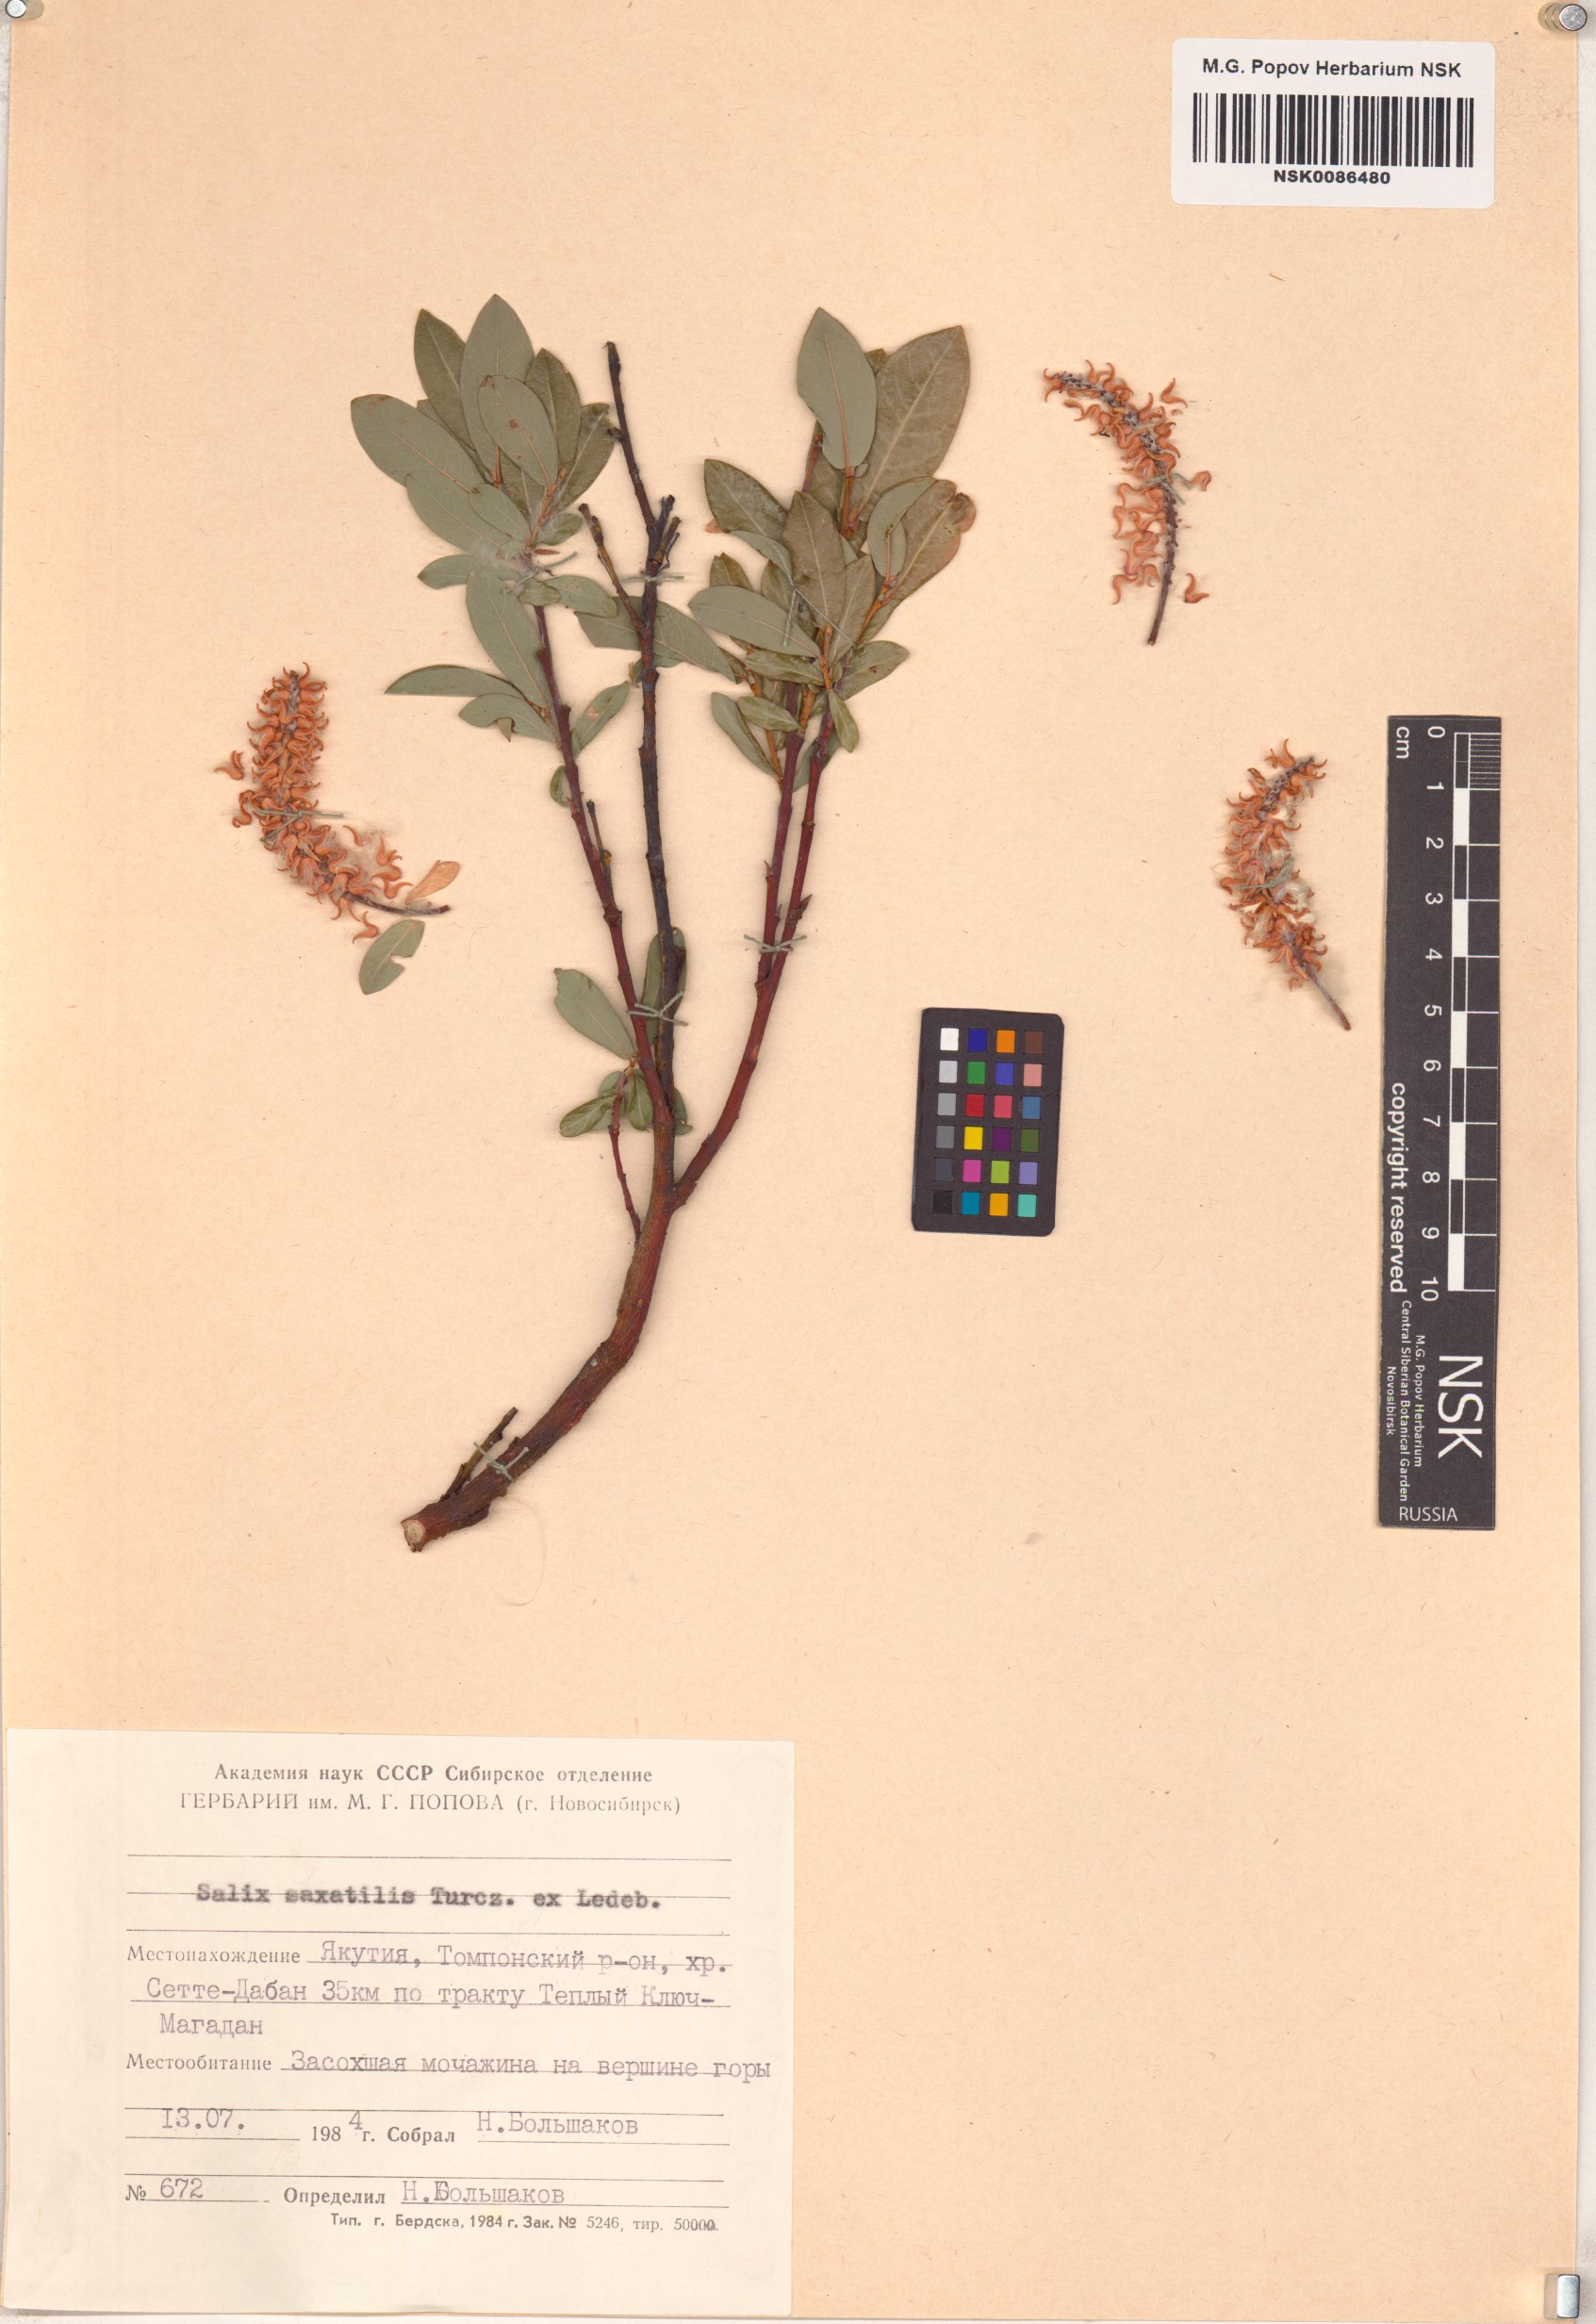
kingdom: Plantae
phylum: Tracheophyta
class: Magnoliopsida
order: Malpighiales
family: Salicaceae
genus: Salix
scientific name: Salix saxatilis
